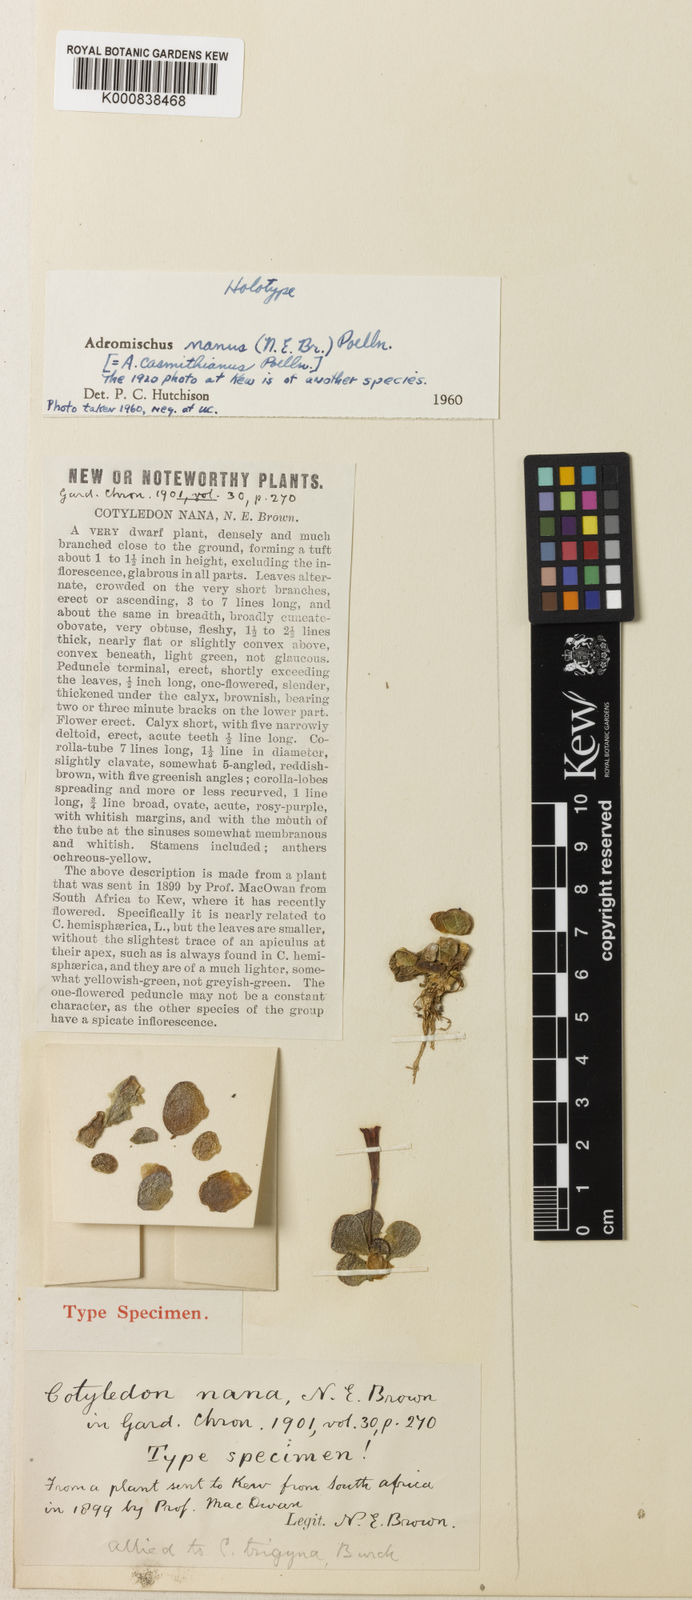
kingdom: Plantae
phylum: Tracheophyta
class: Magnoliopsida
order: Saxifragales
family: Crassulaceae
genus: Adromischus
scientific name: Adromischus nanus
